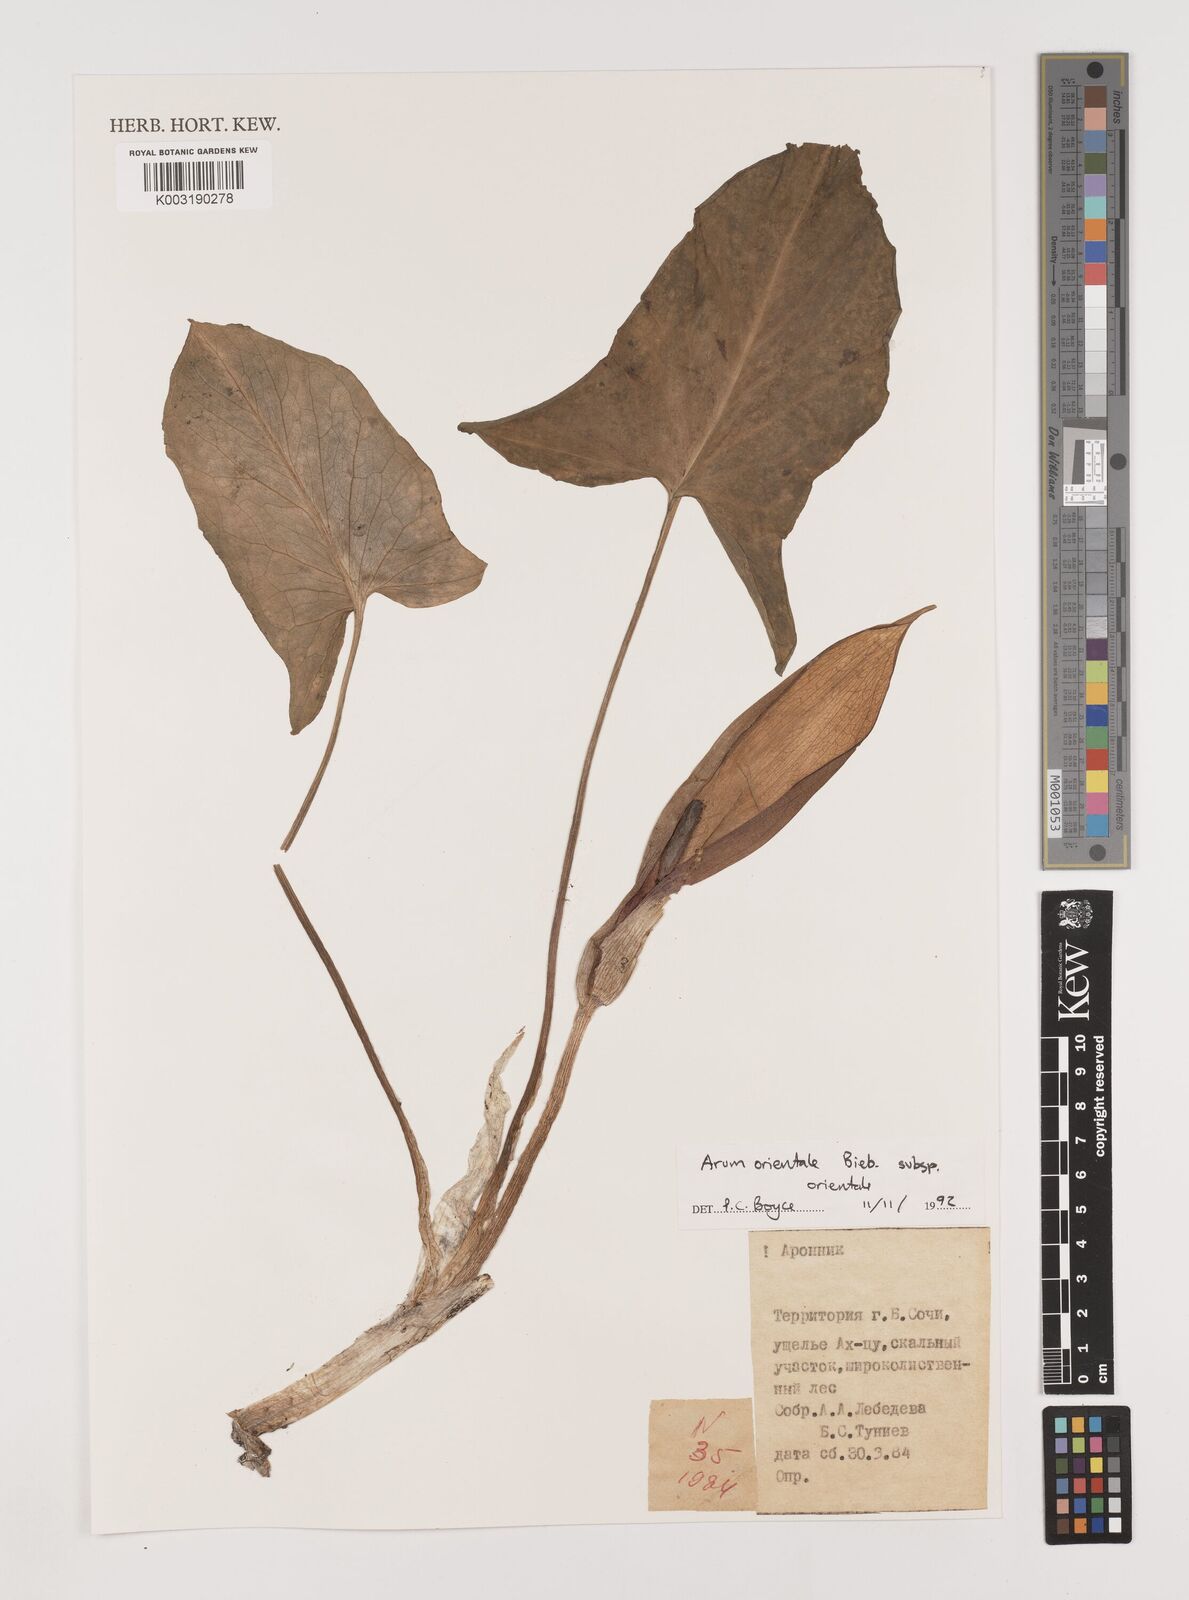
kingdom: Plantae
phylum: Tracheophyta
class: Liliopsida
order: Alismatales
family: Araceae
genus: Arum
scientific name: Arum orientale
